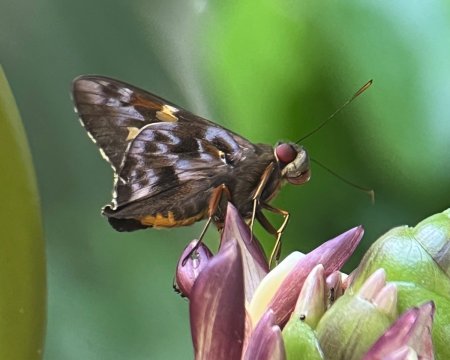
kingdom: Animalia
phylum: Arthropoda
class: Insecta
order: Lepidoptera
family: Hesperiidae
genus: Perichares
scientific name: Perichares philetes
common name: Green-backed Ruby-eye
